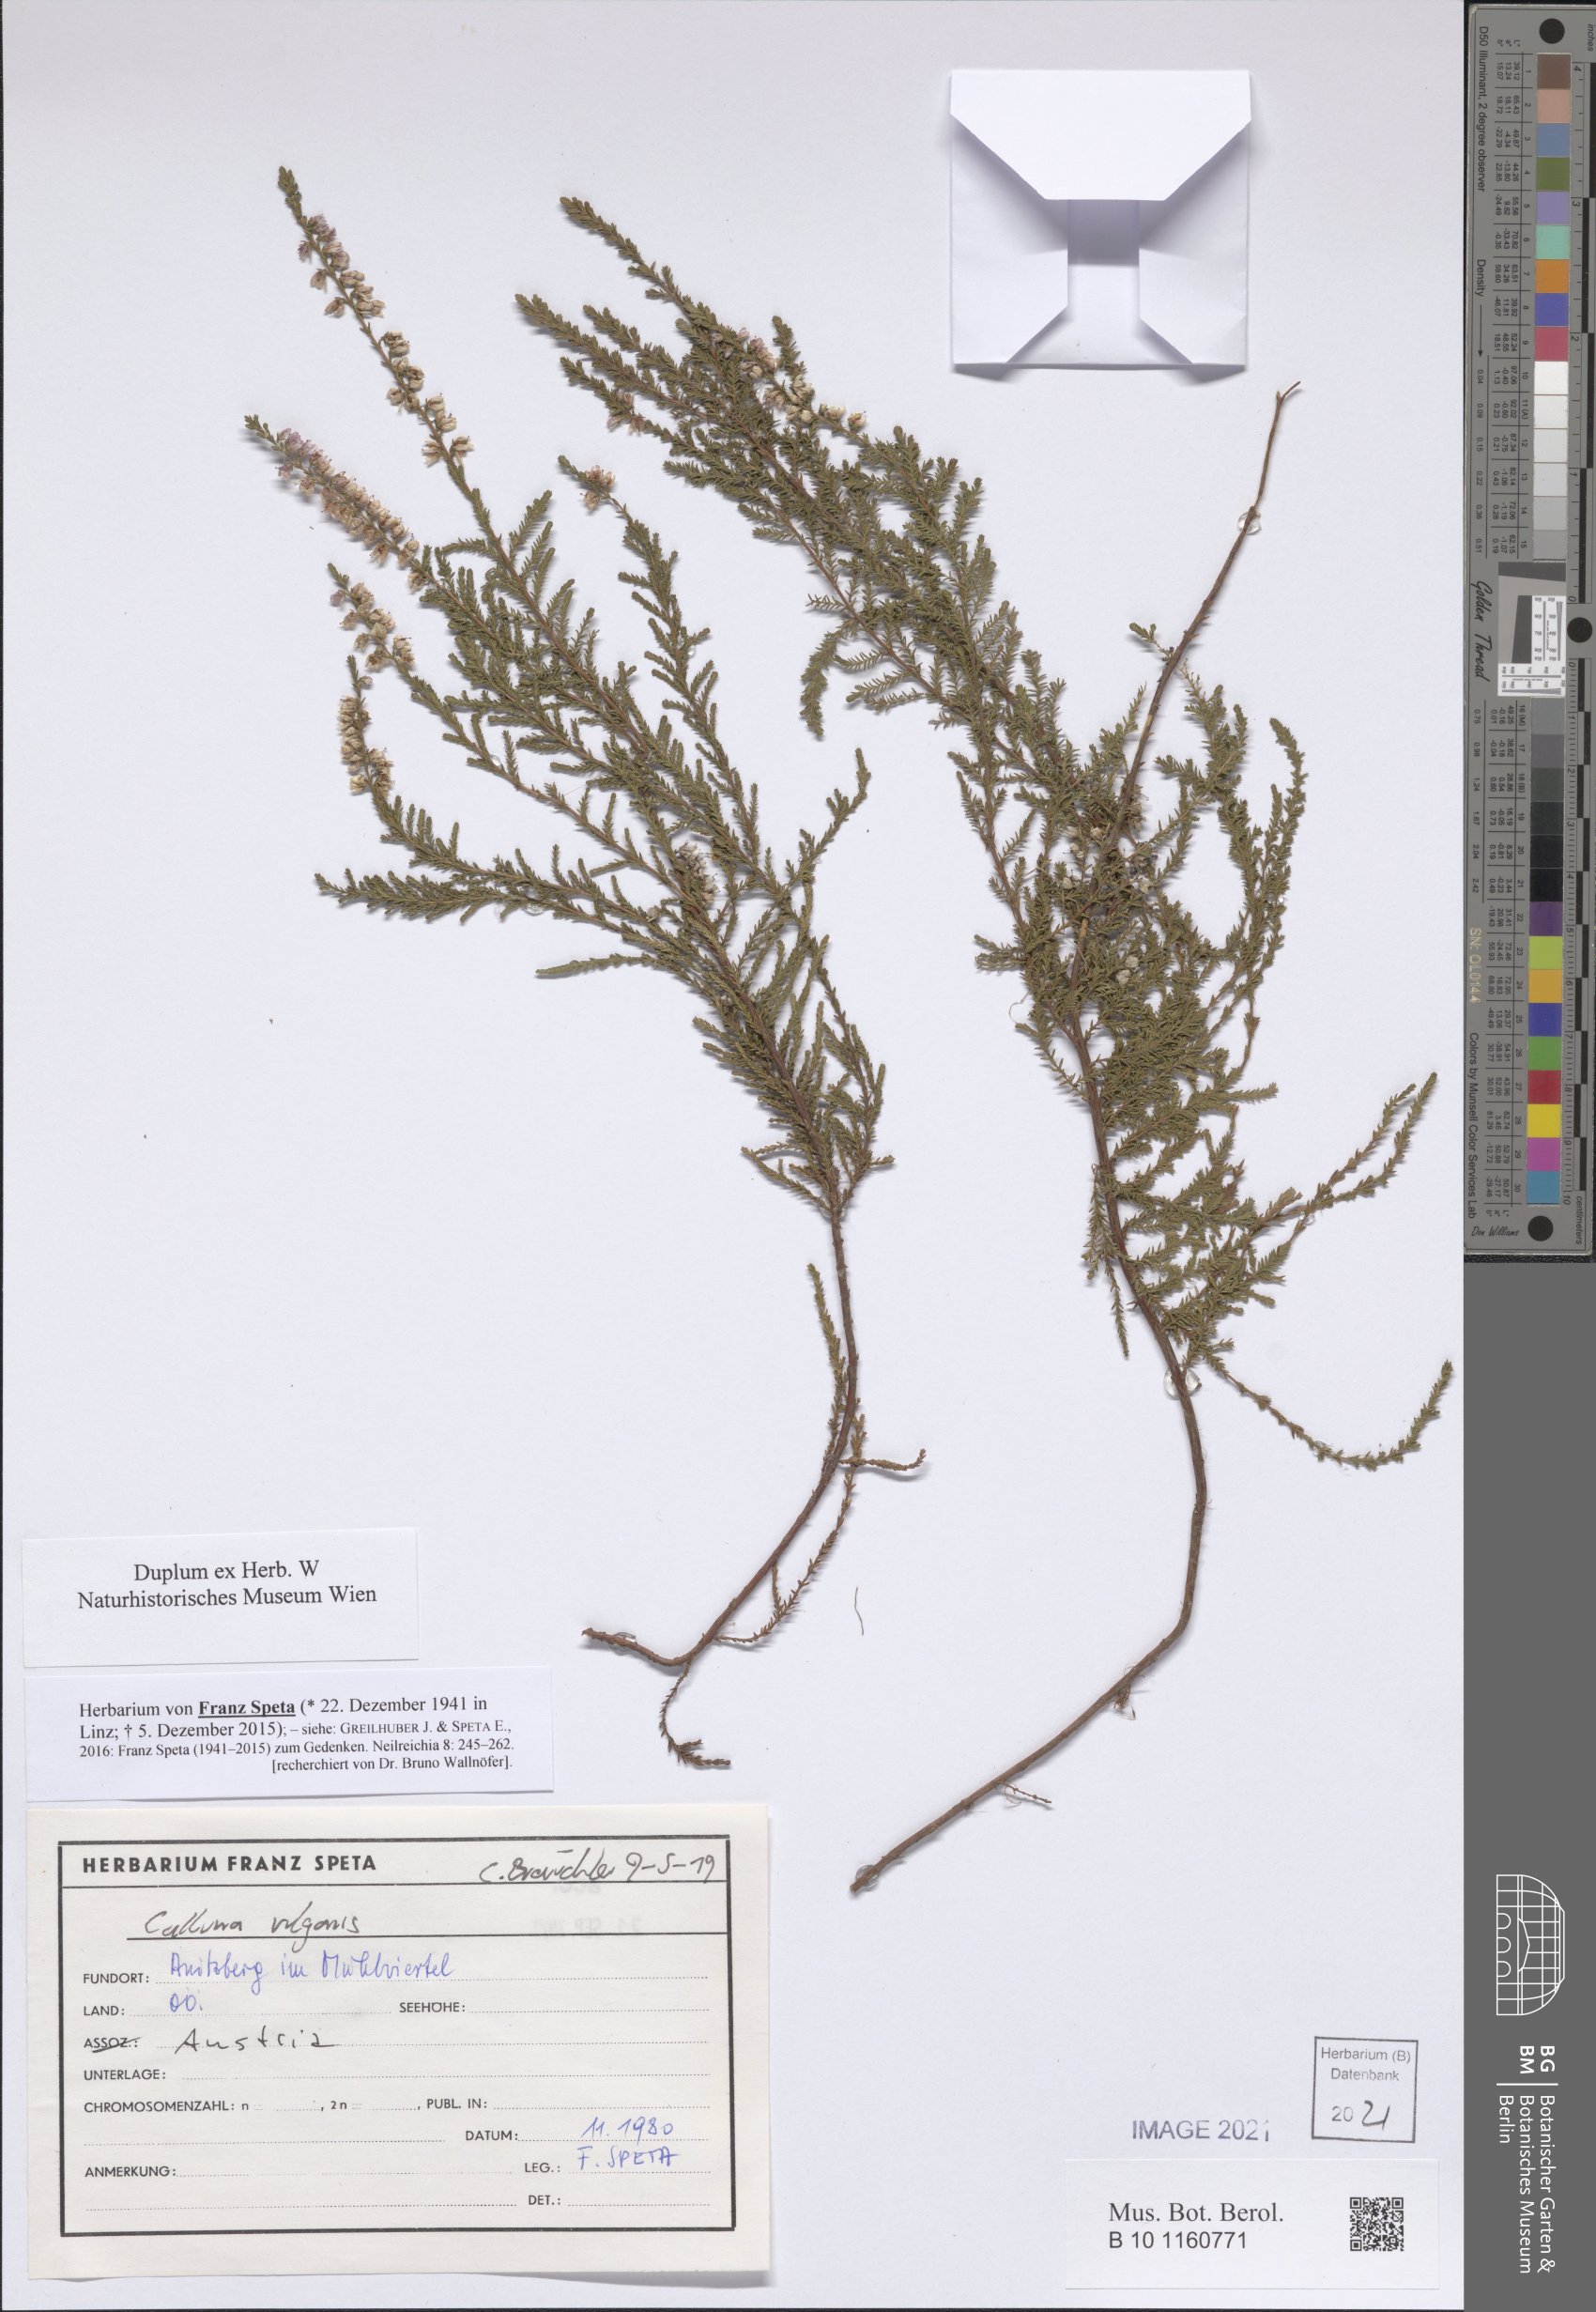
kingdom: Plantae
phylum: Tracheophyta
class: Magnoliopsida
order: Ericales
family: Ericaceae
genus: Calluna
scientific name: Calluna vulgaris
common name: Heather
